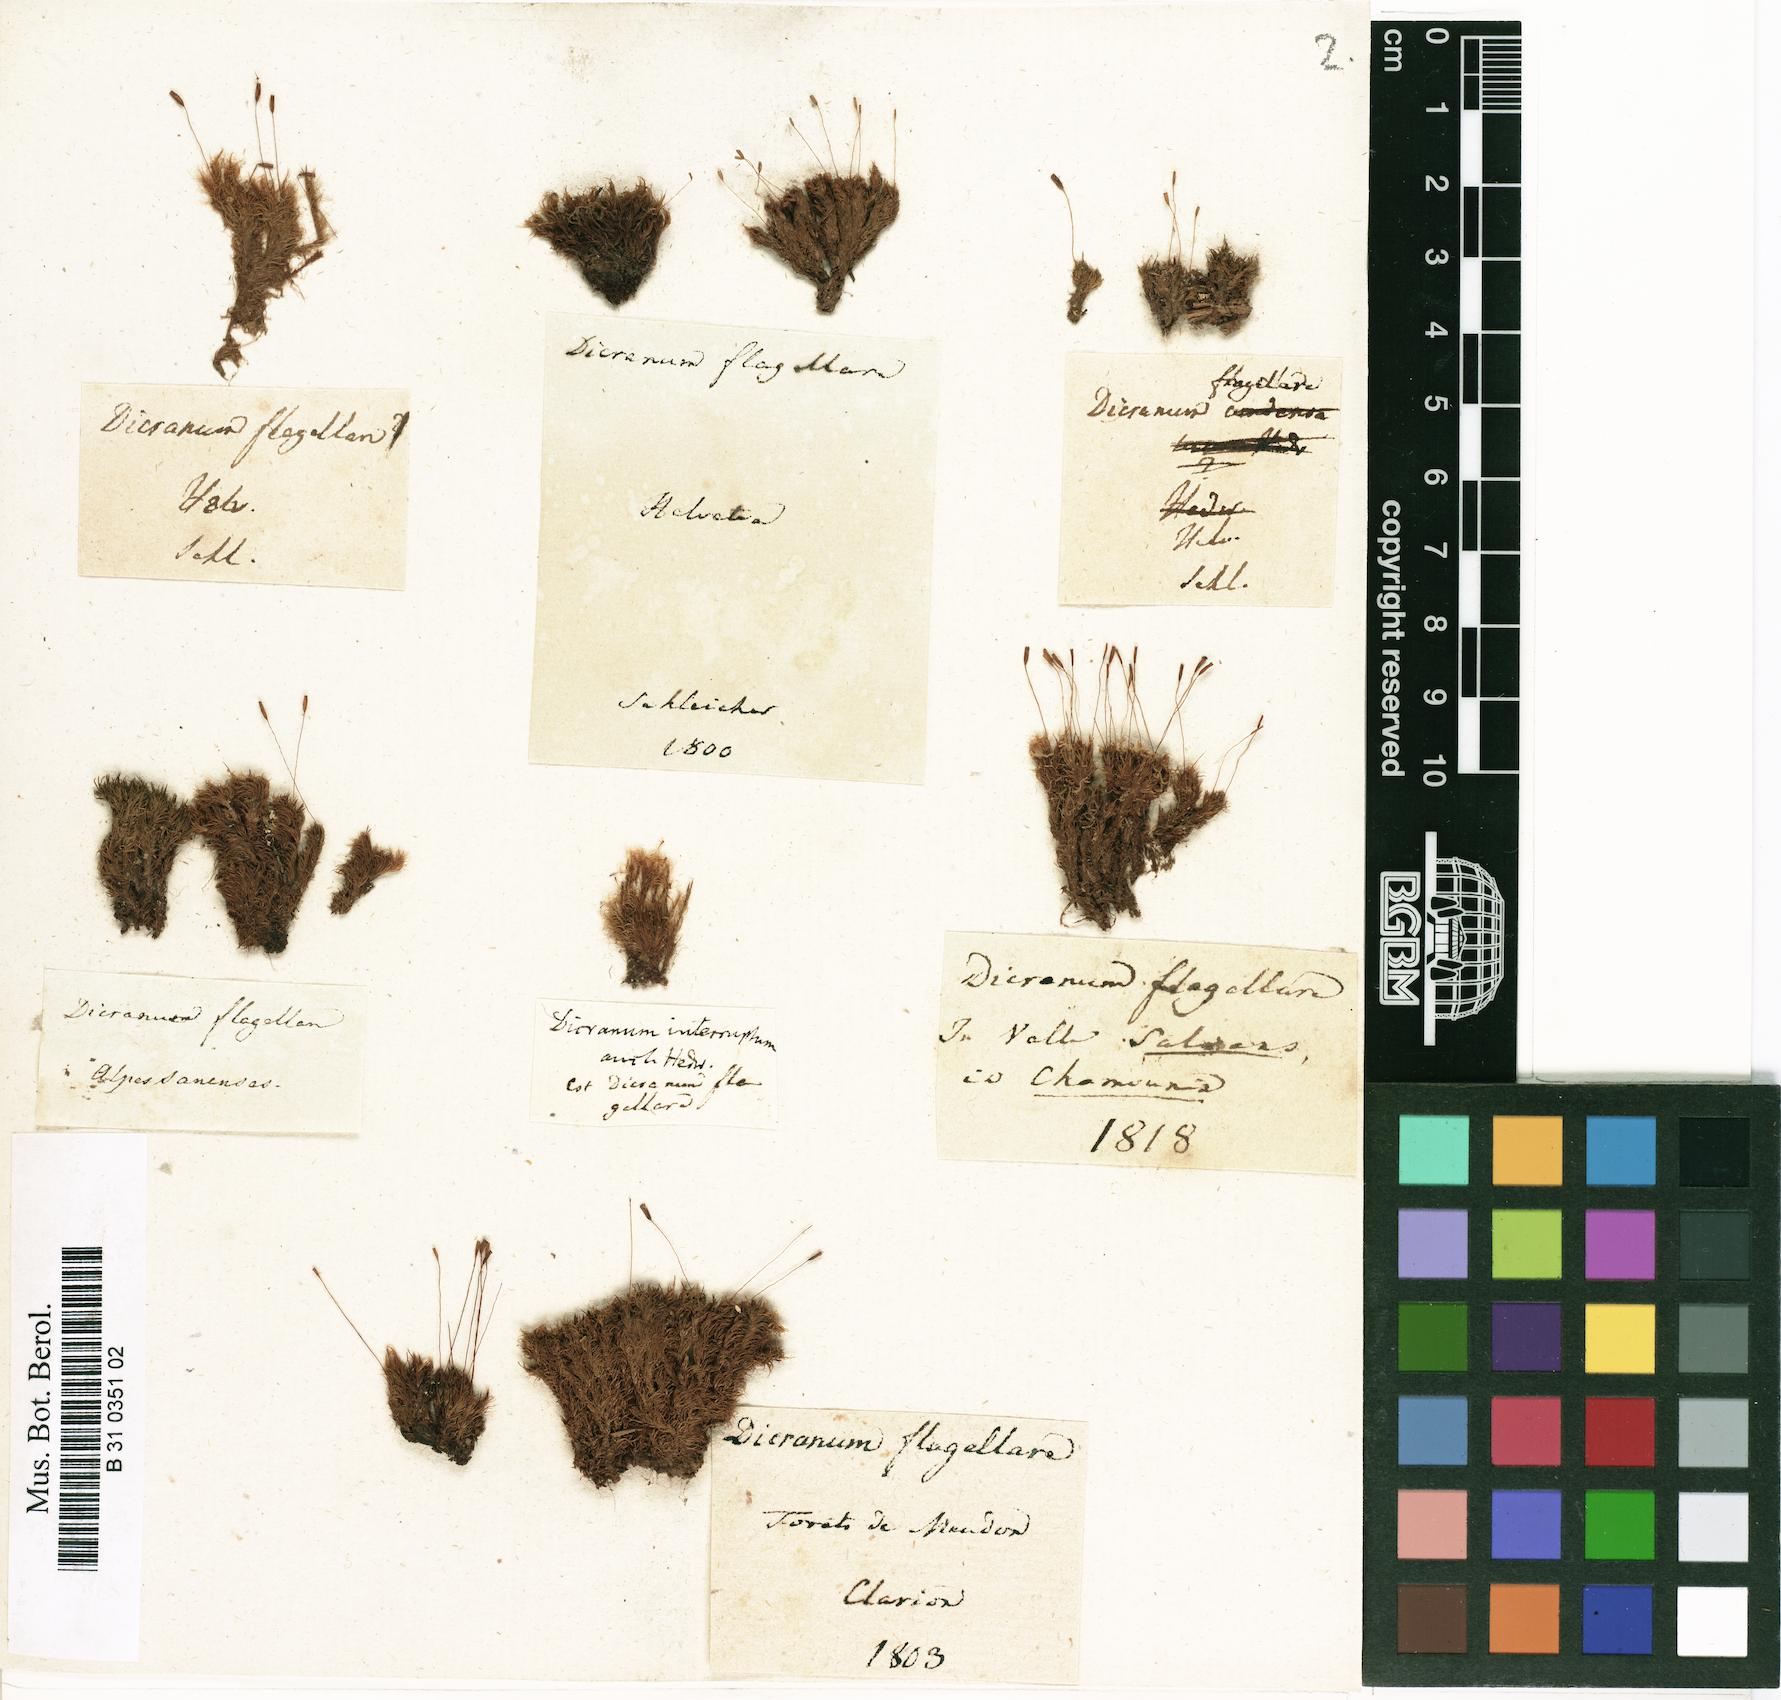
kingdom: Plantae
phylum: Bryophyta
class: Bryopsida
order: Dicranales
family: Dicranaceae
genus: Orthodicranum
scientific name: Orthodicranum flagellare
